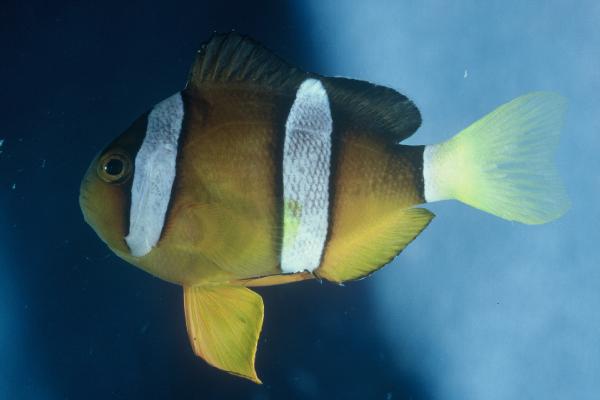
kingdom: Animalia
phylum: Chordata
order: Perciformes
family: Pomacentridae
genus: Amphiprion
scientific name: Amphiprion clarkii
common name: Clark's anemonefish
